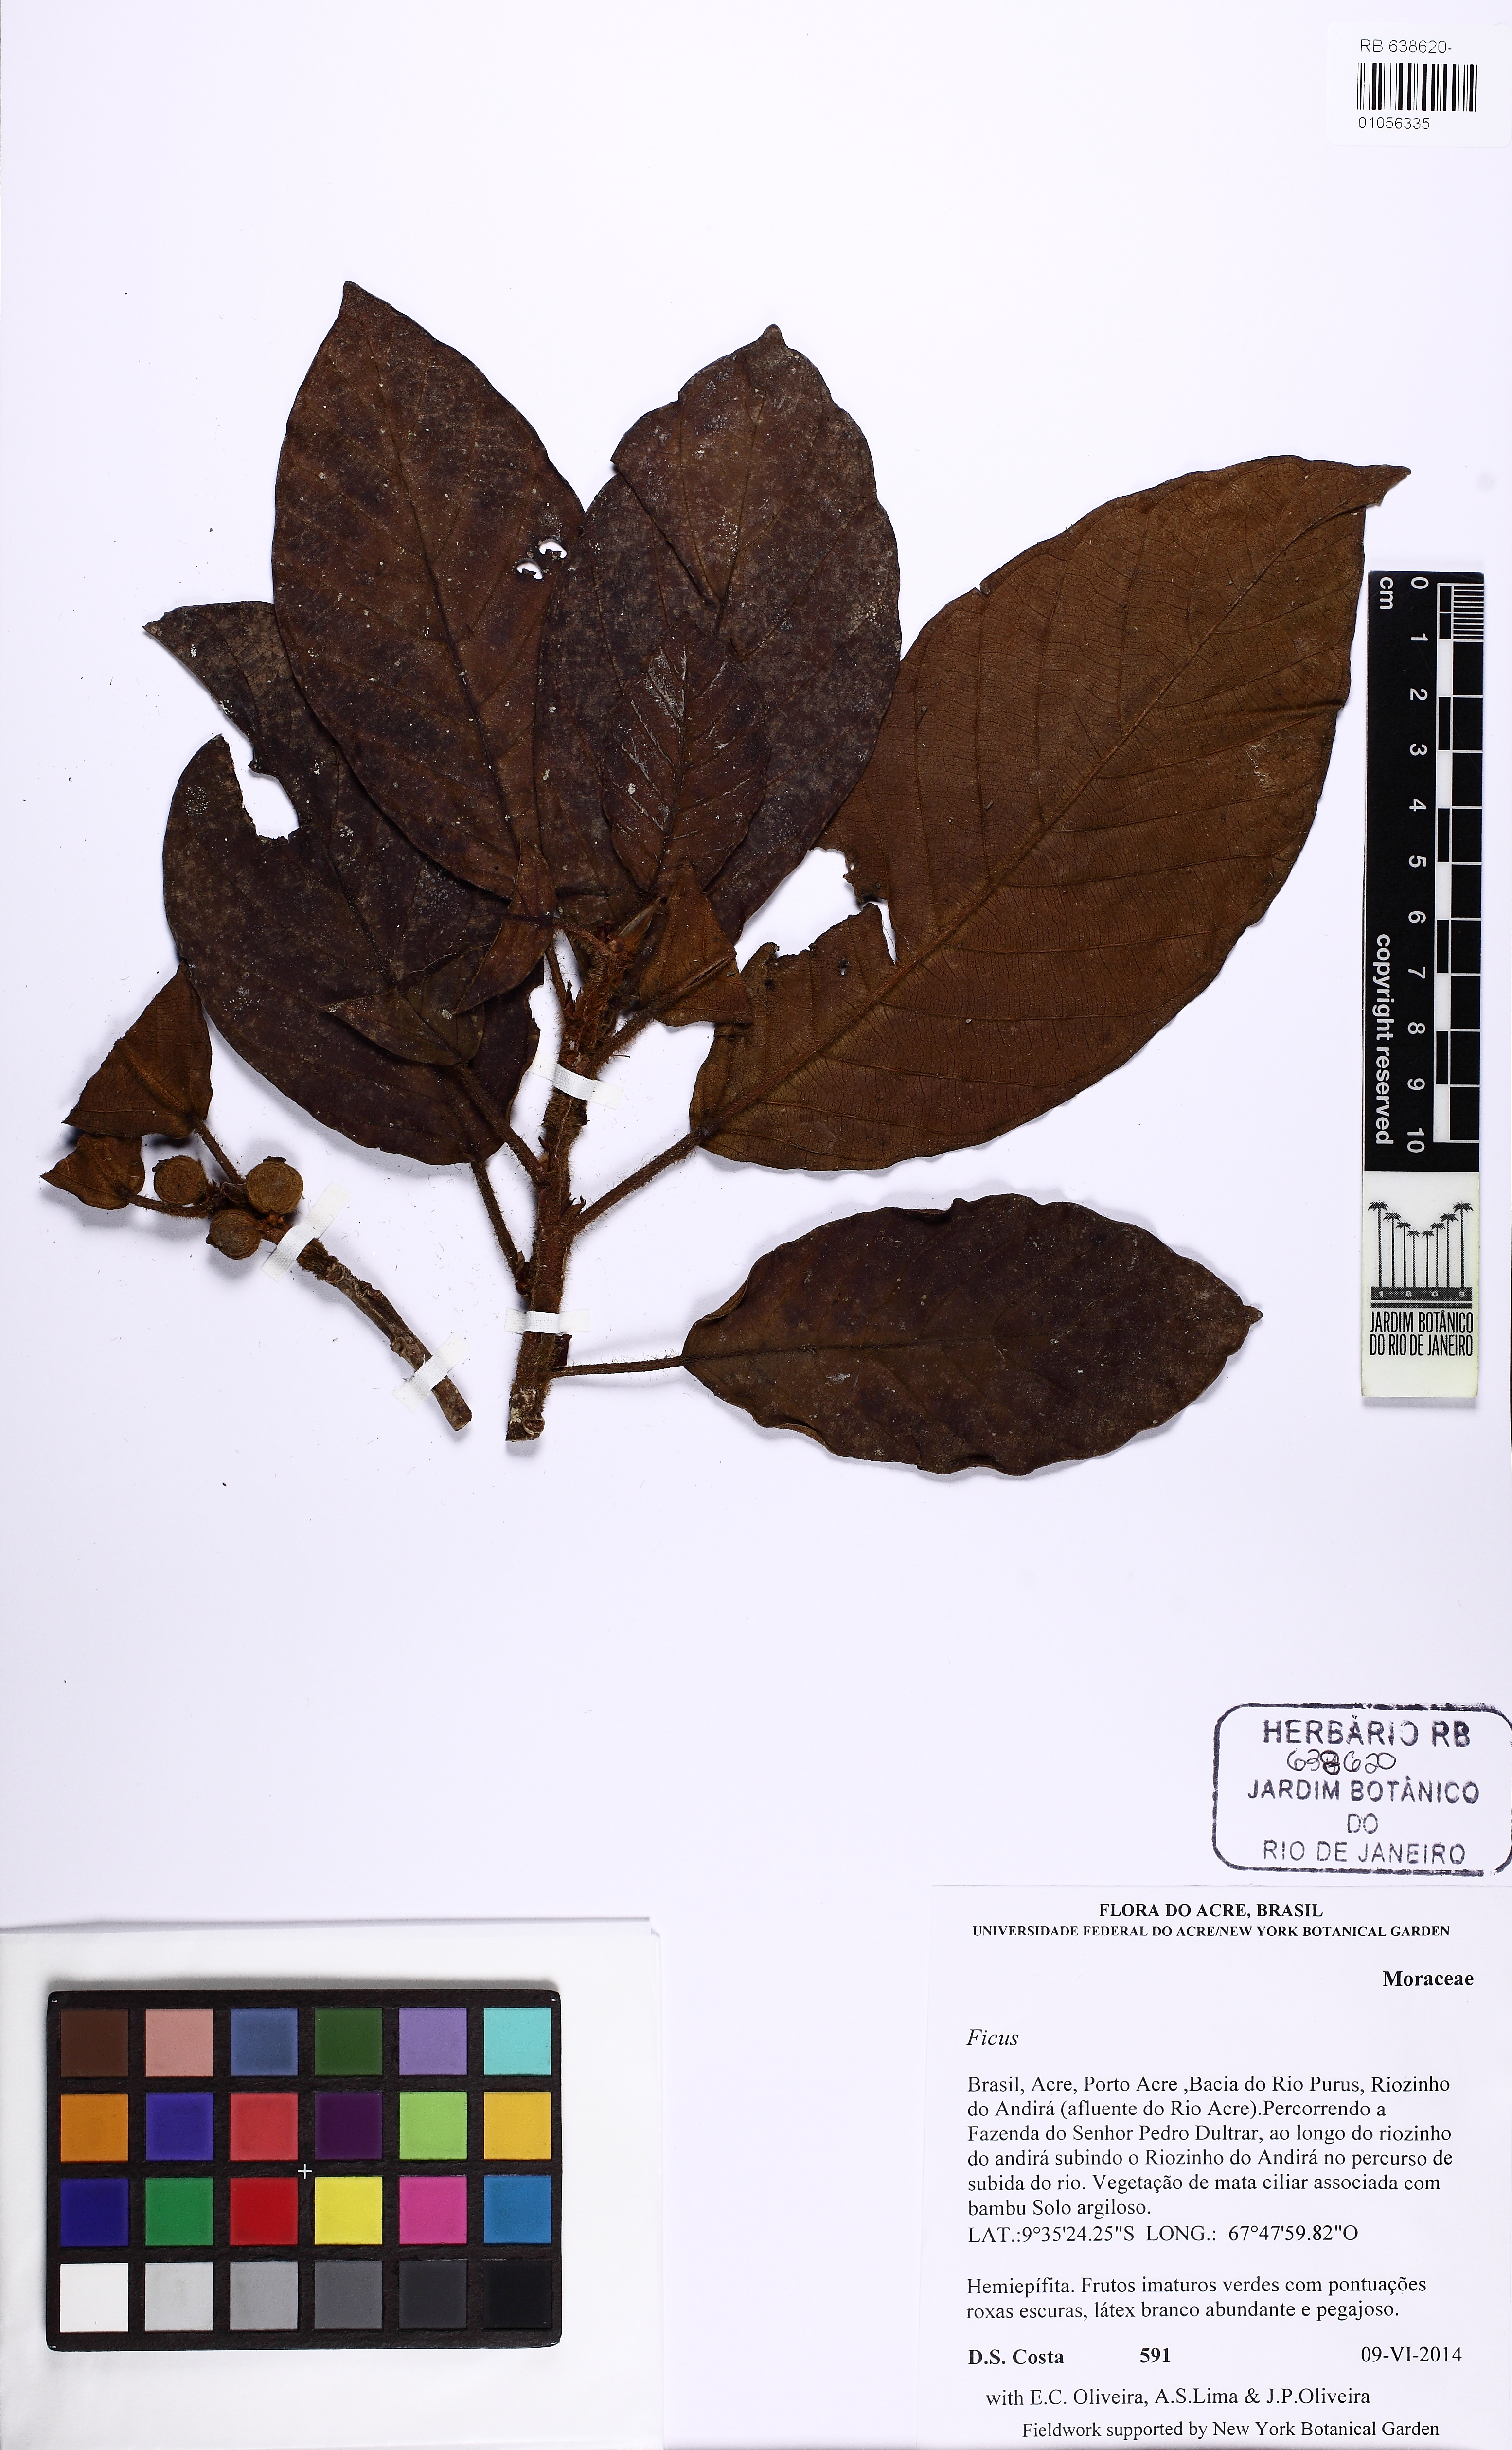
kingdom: Plantae
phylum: Tracheophyta
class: Magnoliopsida
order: Rosales
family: Moraceae
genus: Ficus
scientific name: Ficus trigona
